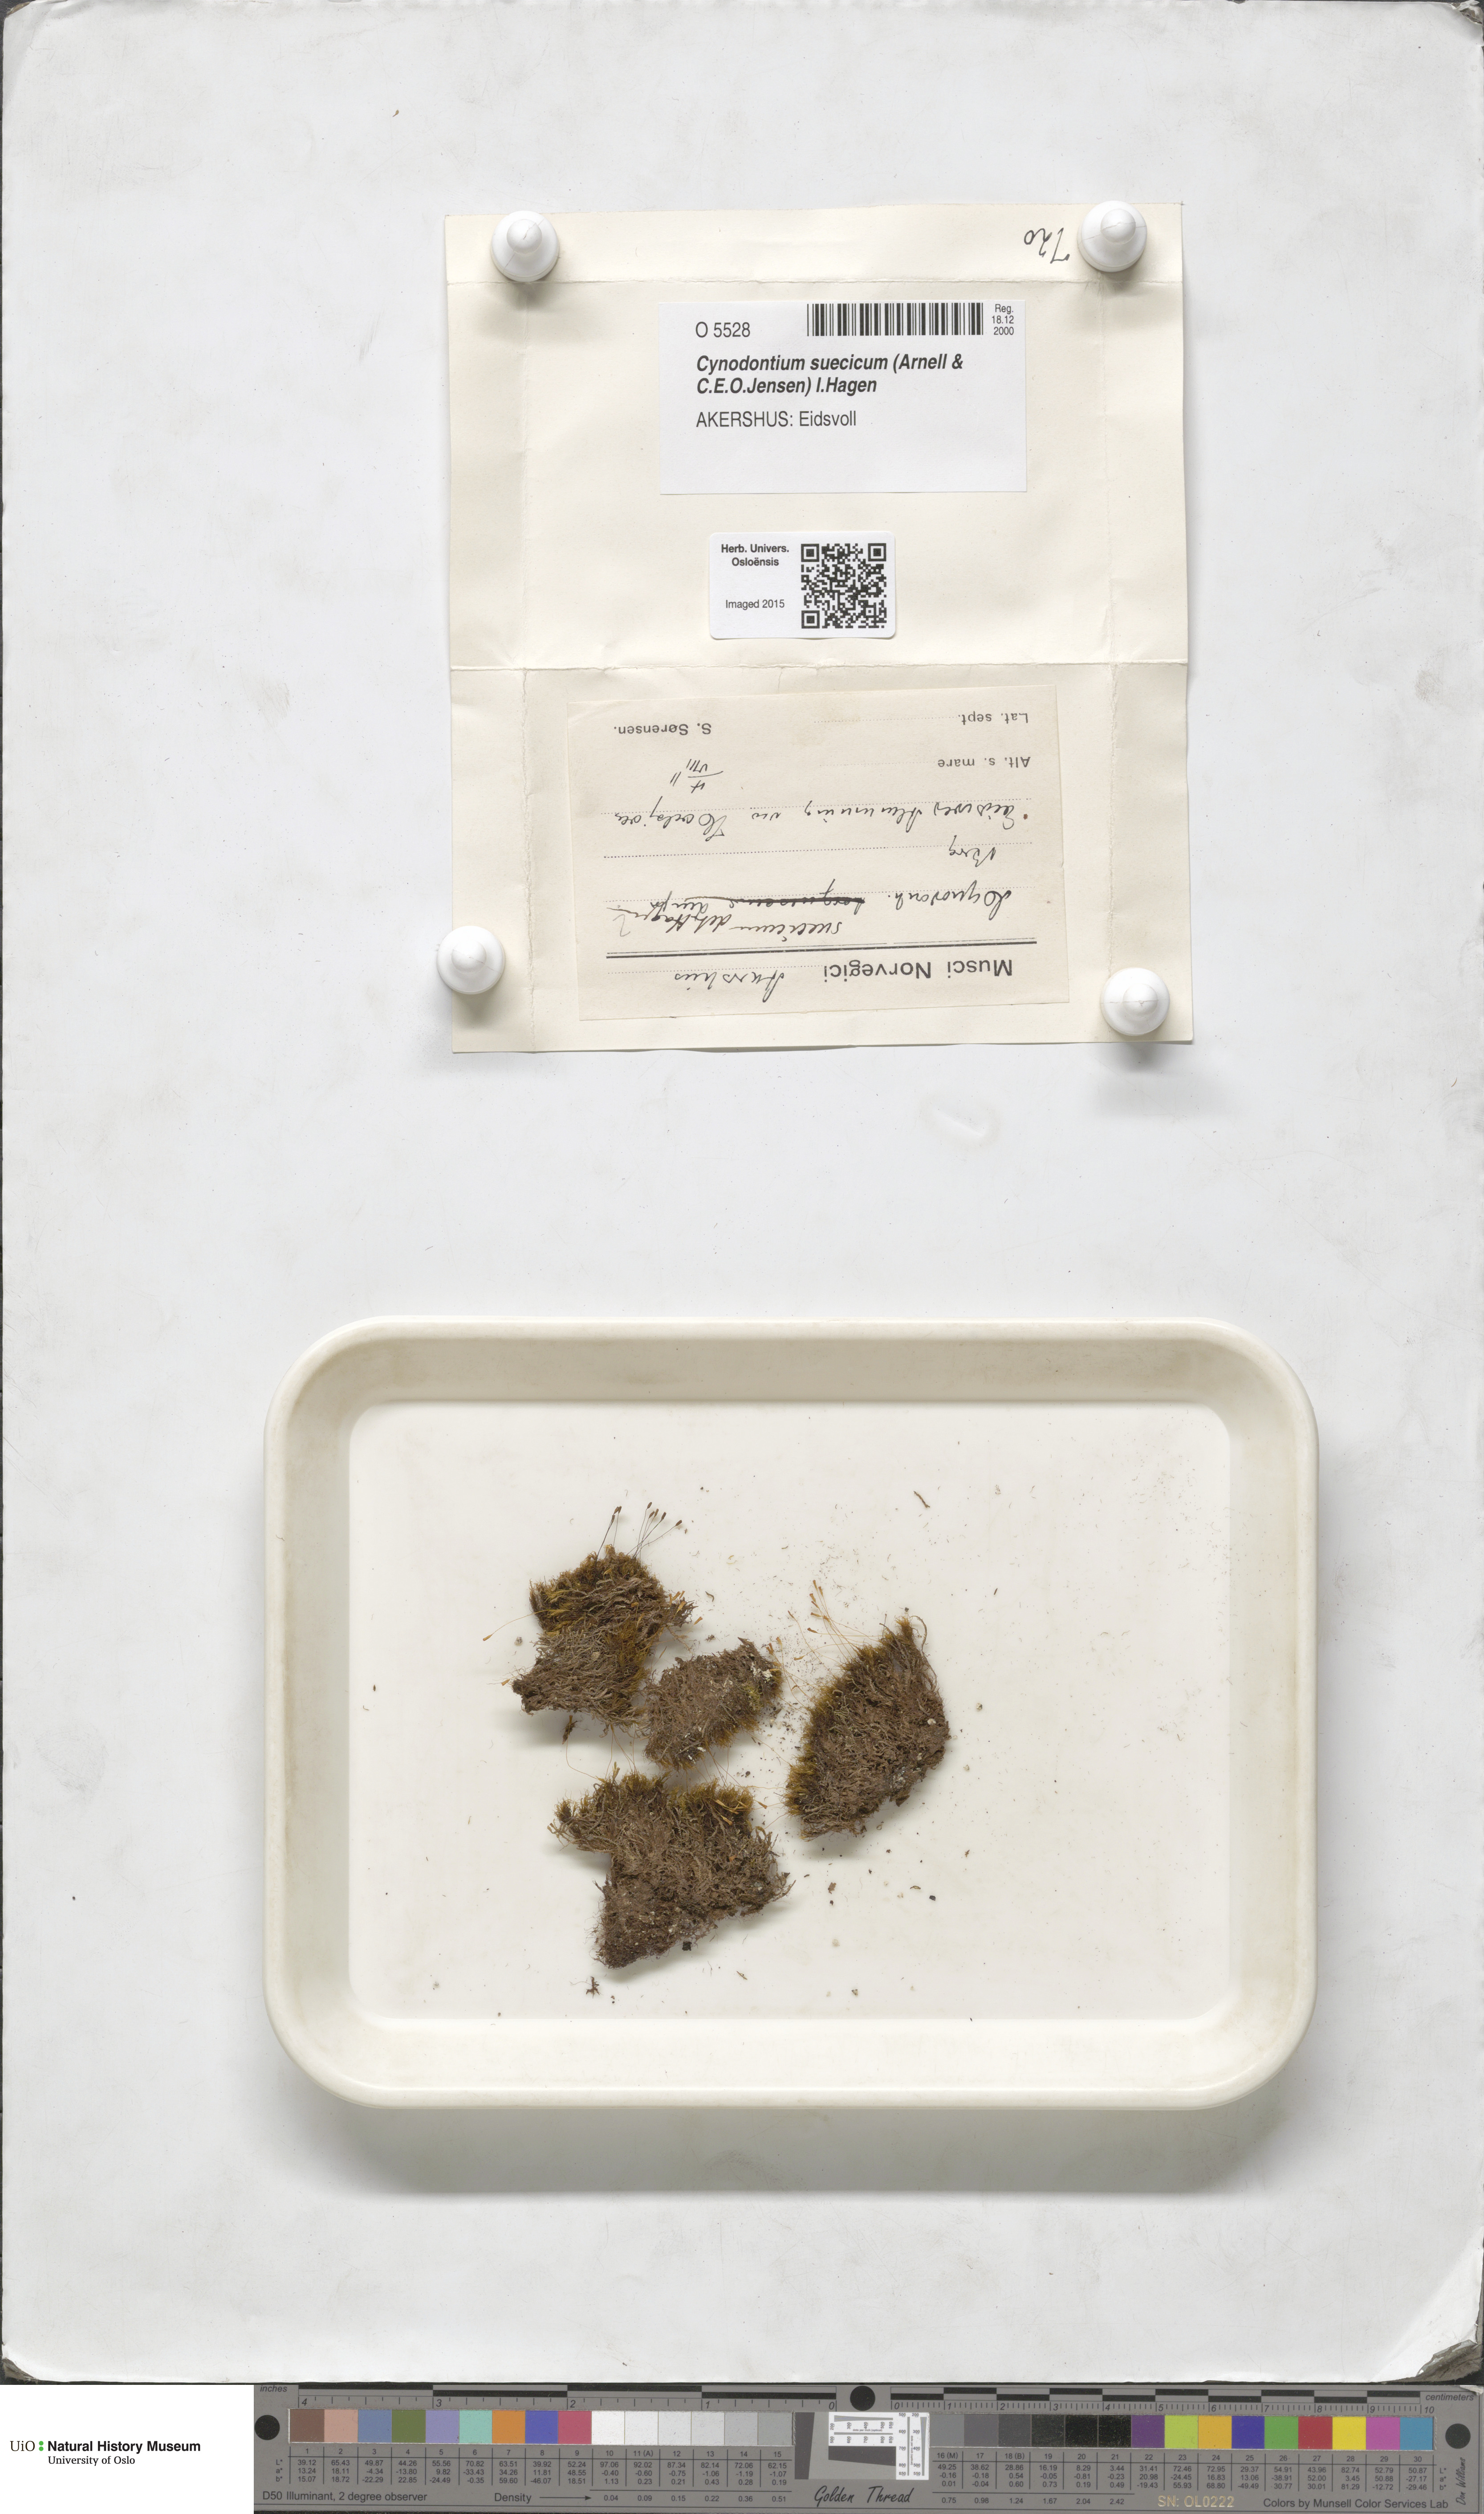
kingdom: Plantae
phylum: Bryophyta
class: Bryopsida
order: Dicranales
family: Rhabdoweisiaceae
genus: Cynodontium
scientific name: Cynodontium suecicum
